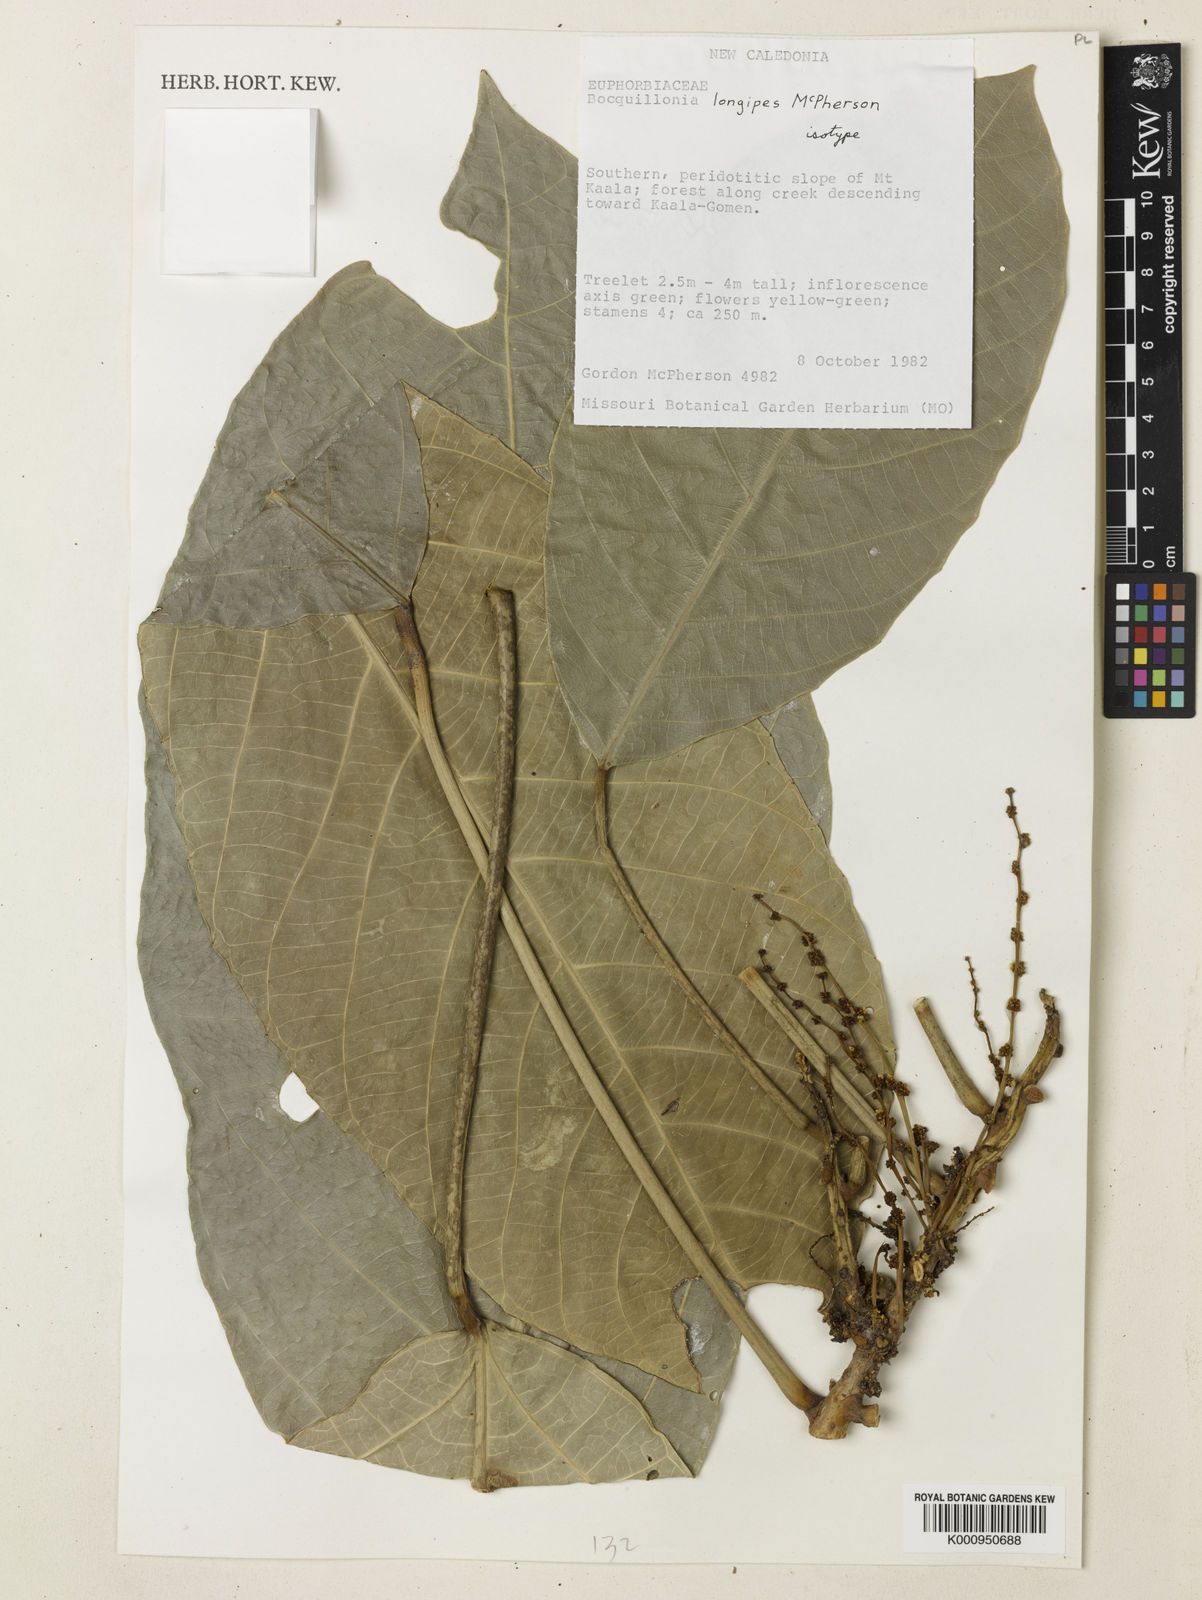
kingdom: Plantae
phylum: Tracheophyta
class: Magnoliopsida
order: Malpighiales
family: Euphorbiaceae
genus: Bocquillonia
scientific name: Bocquillonia longipes
